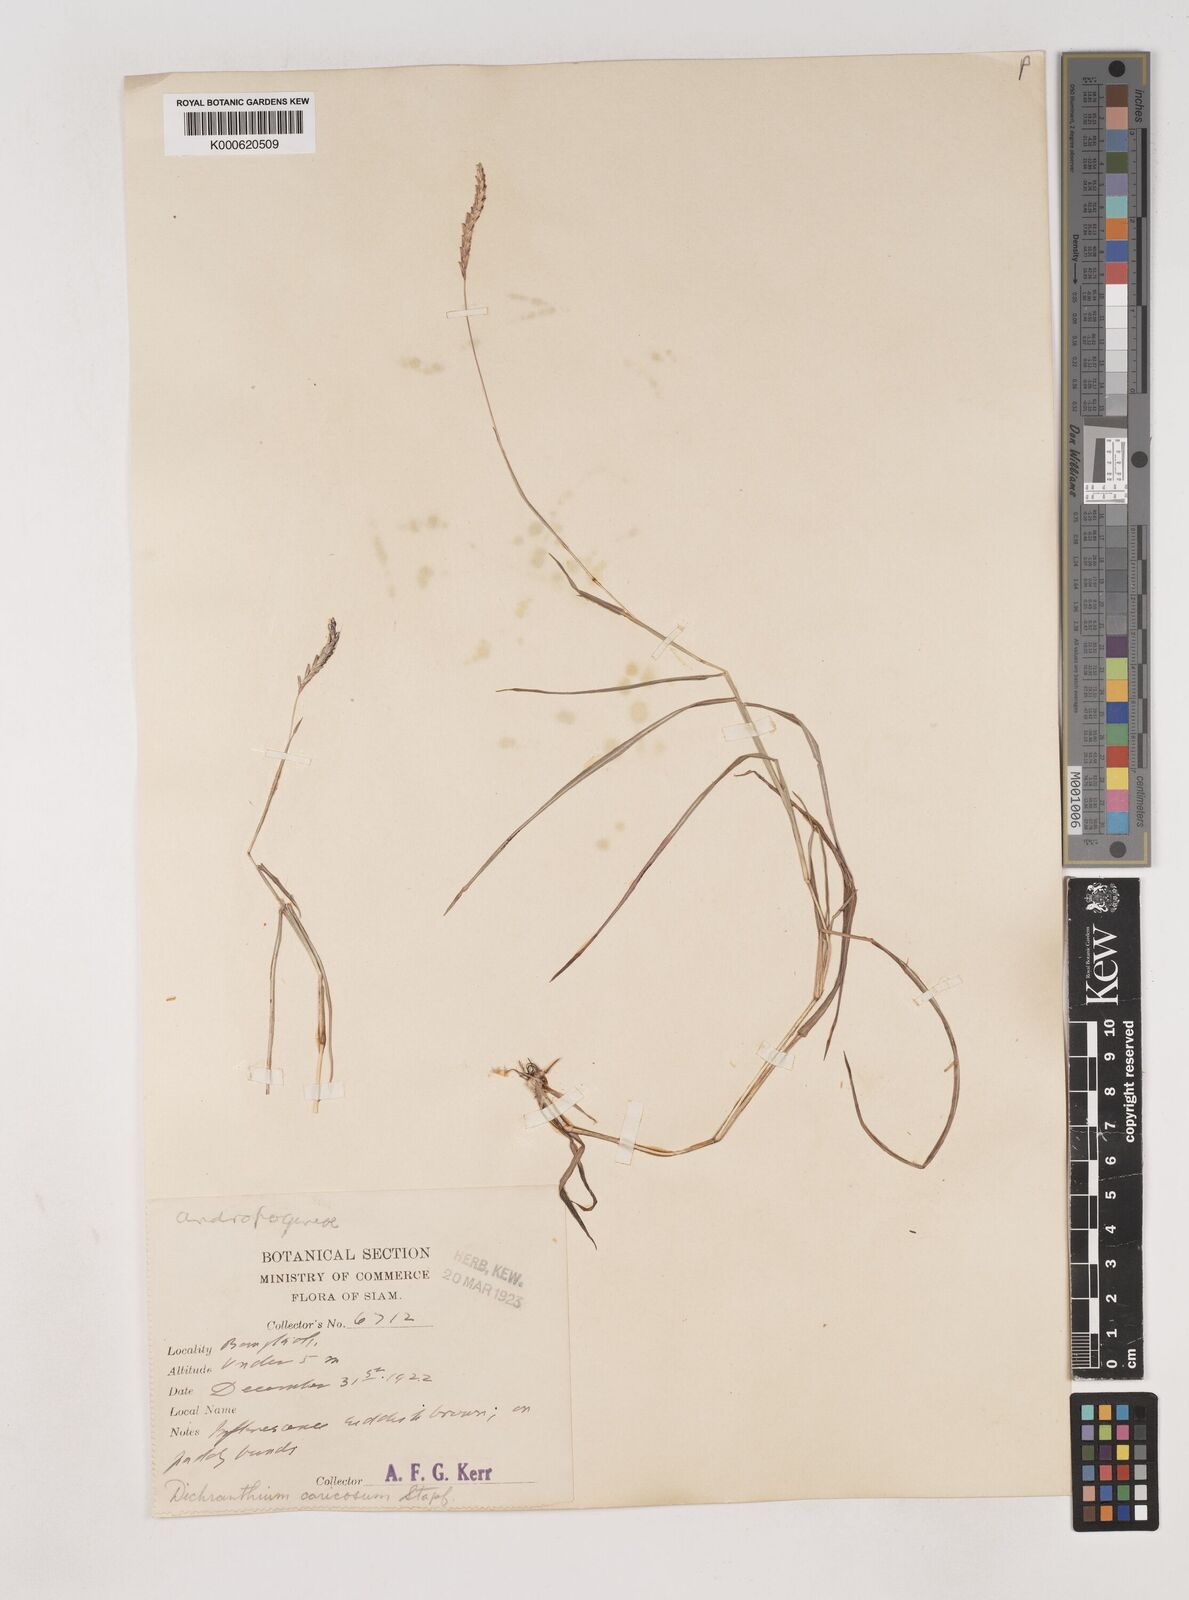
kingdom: Plantae
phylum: Tracheophyta
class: Liliopsida
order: Poales
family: Poaceae
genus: Dichanthium
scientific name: Dichanthium caricosum
